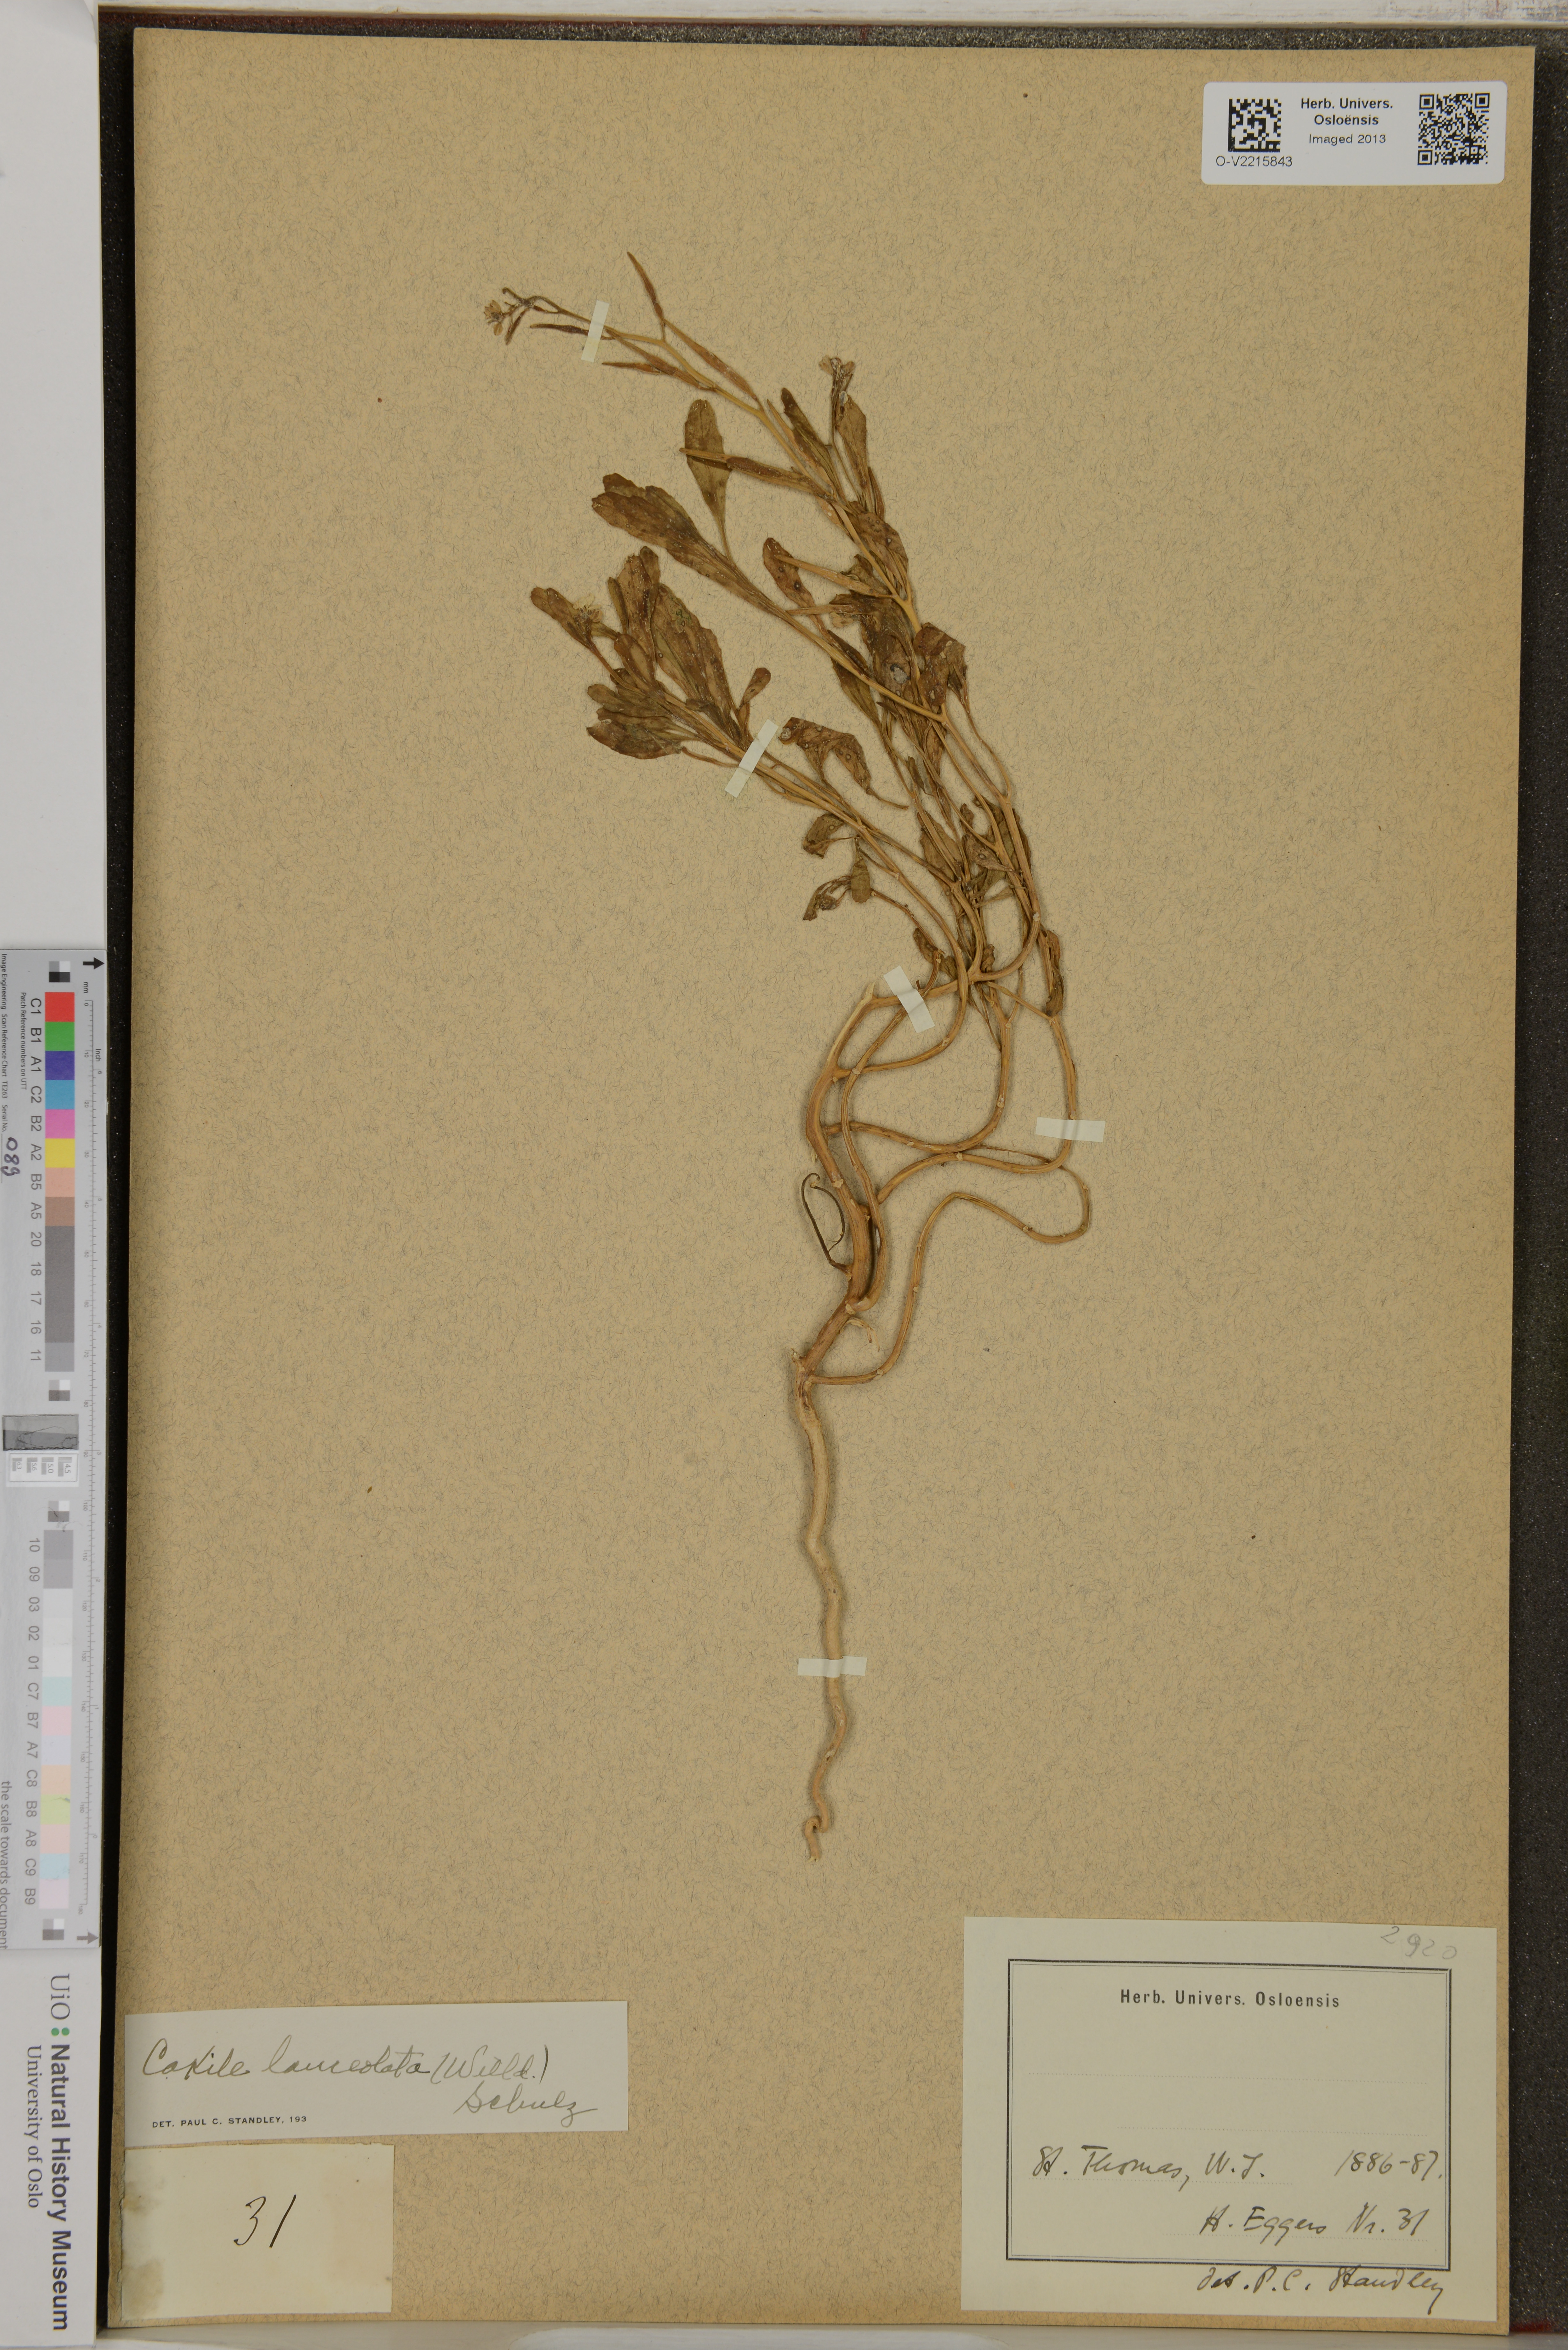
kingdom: Plantae
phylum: Tracheophyta
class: Magnoliopsida
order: Brassicales
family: Brassicaceae
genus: Cakile
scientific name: Cakile lanceolata
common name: Sea rocket
